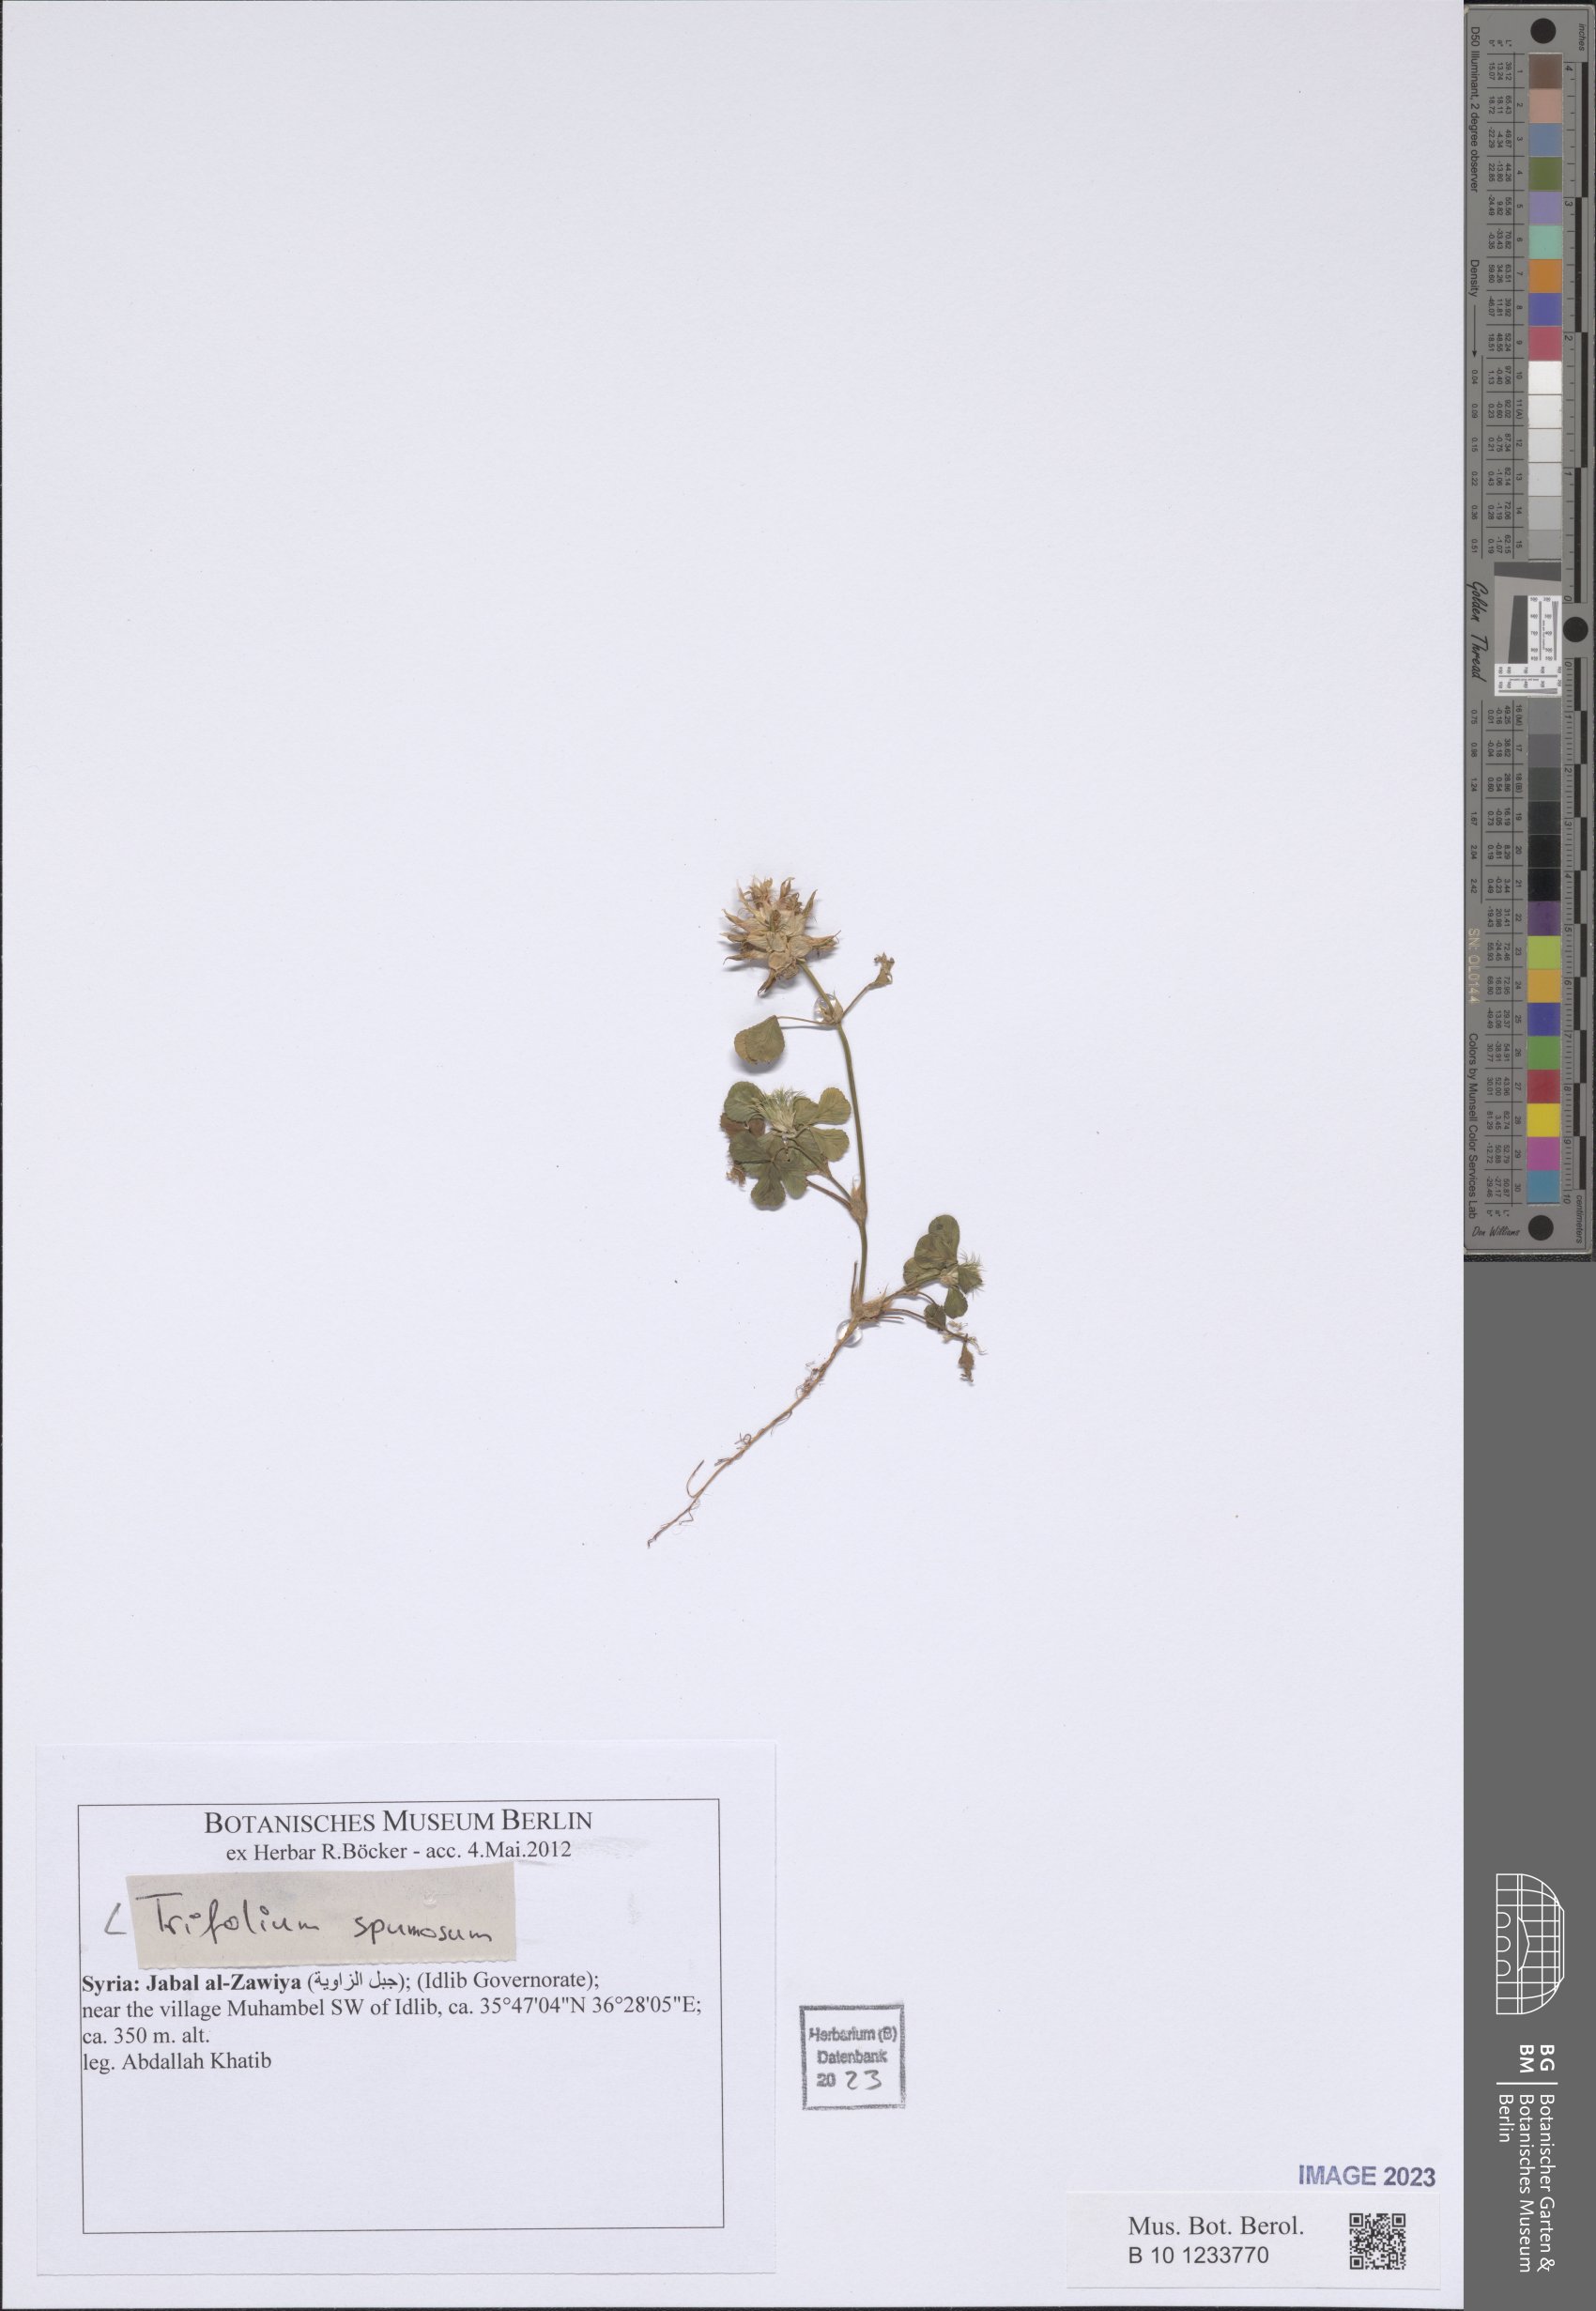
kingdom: Plantae
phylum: Tracheophyta
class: Magnoliopsida
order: Fabales
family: Fabaceae
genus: Trifolium
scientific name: Trifolium spumosum
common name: Mediterranean clover
